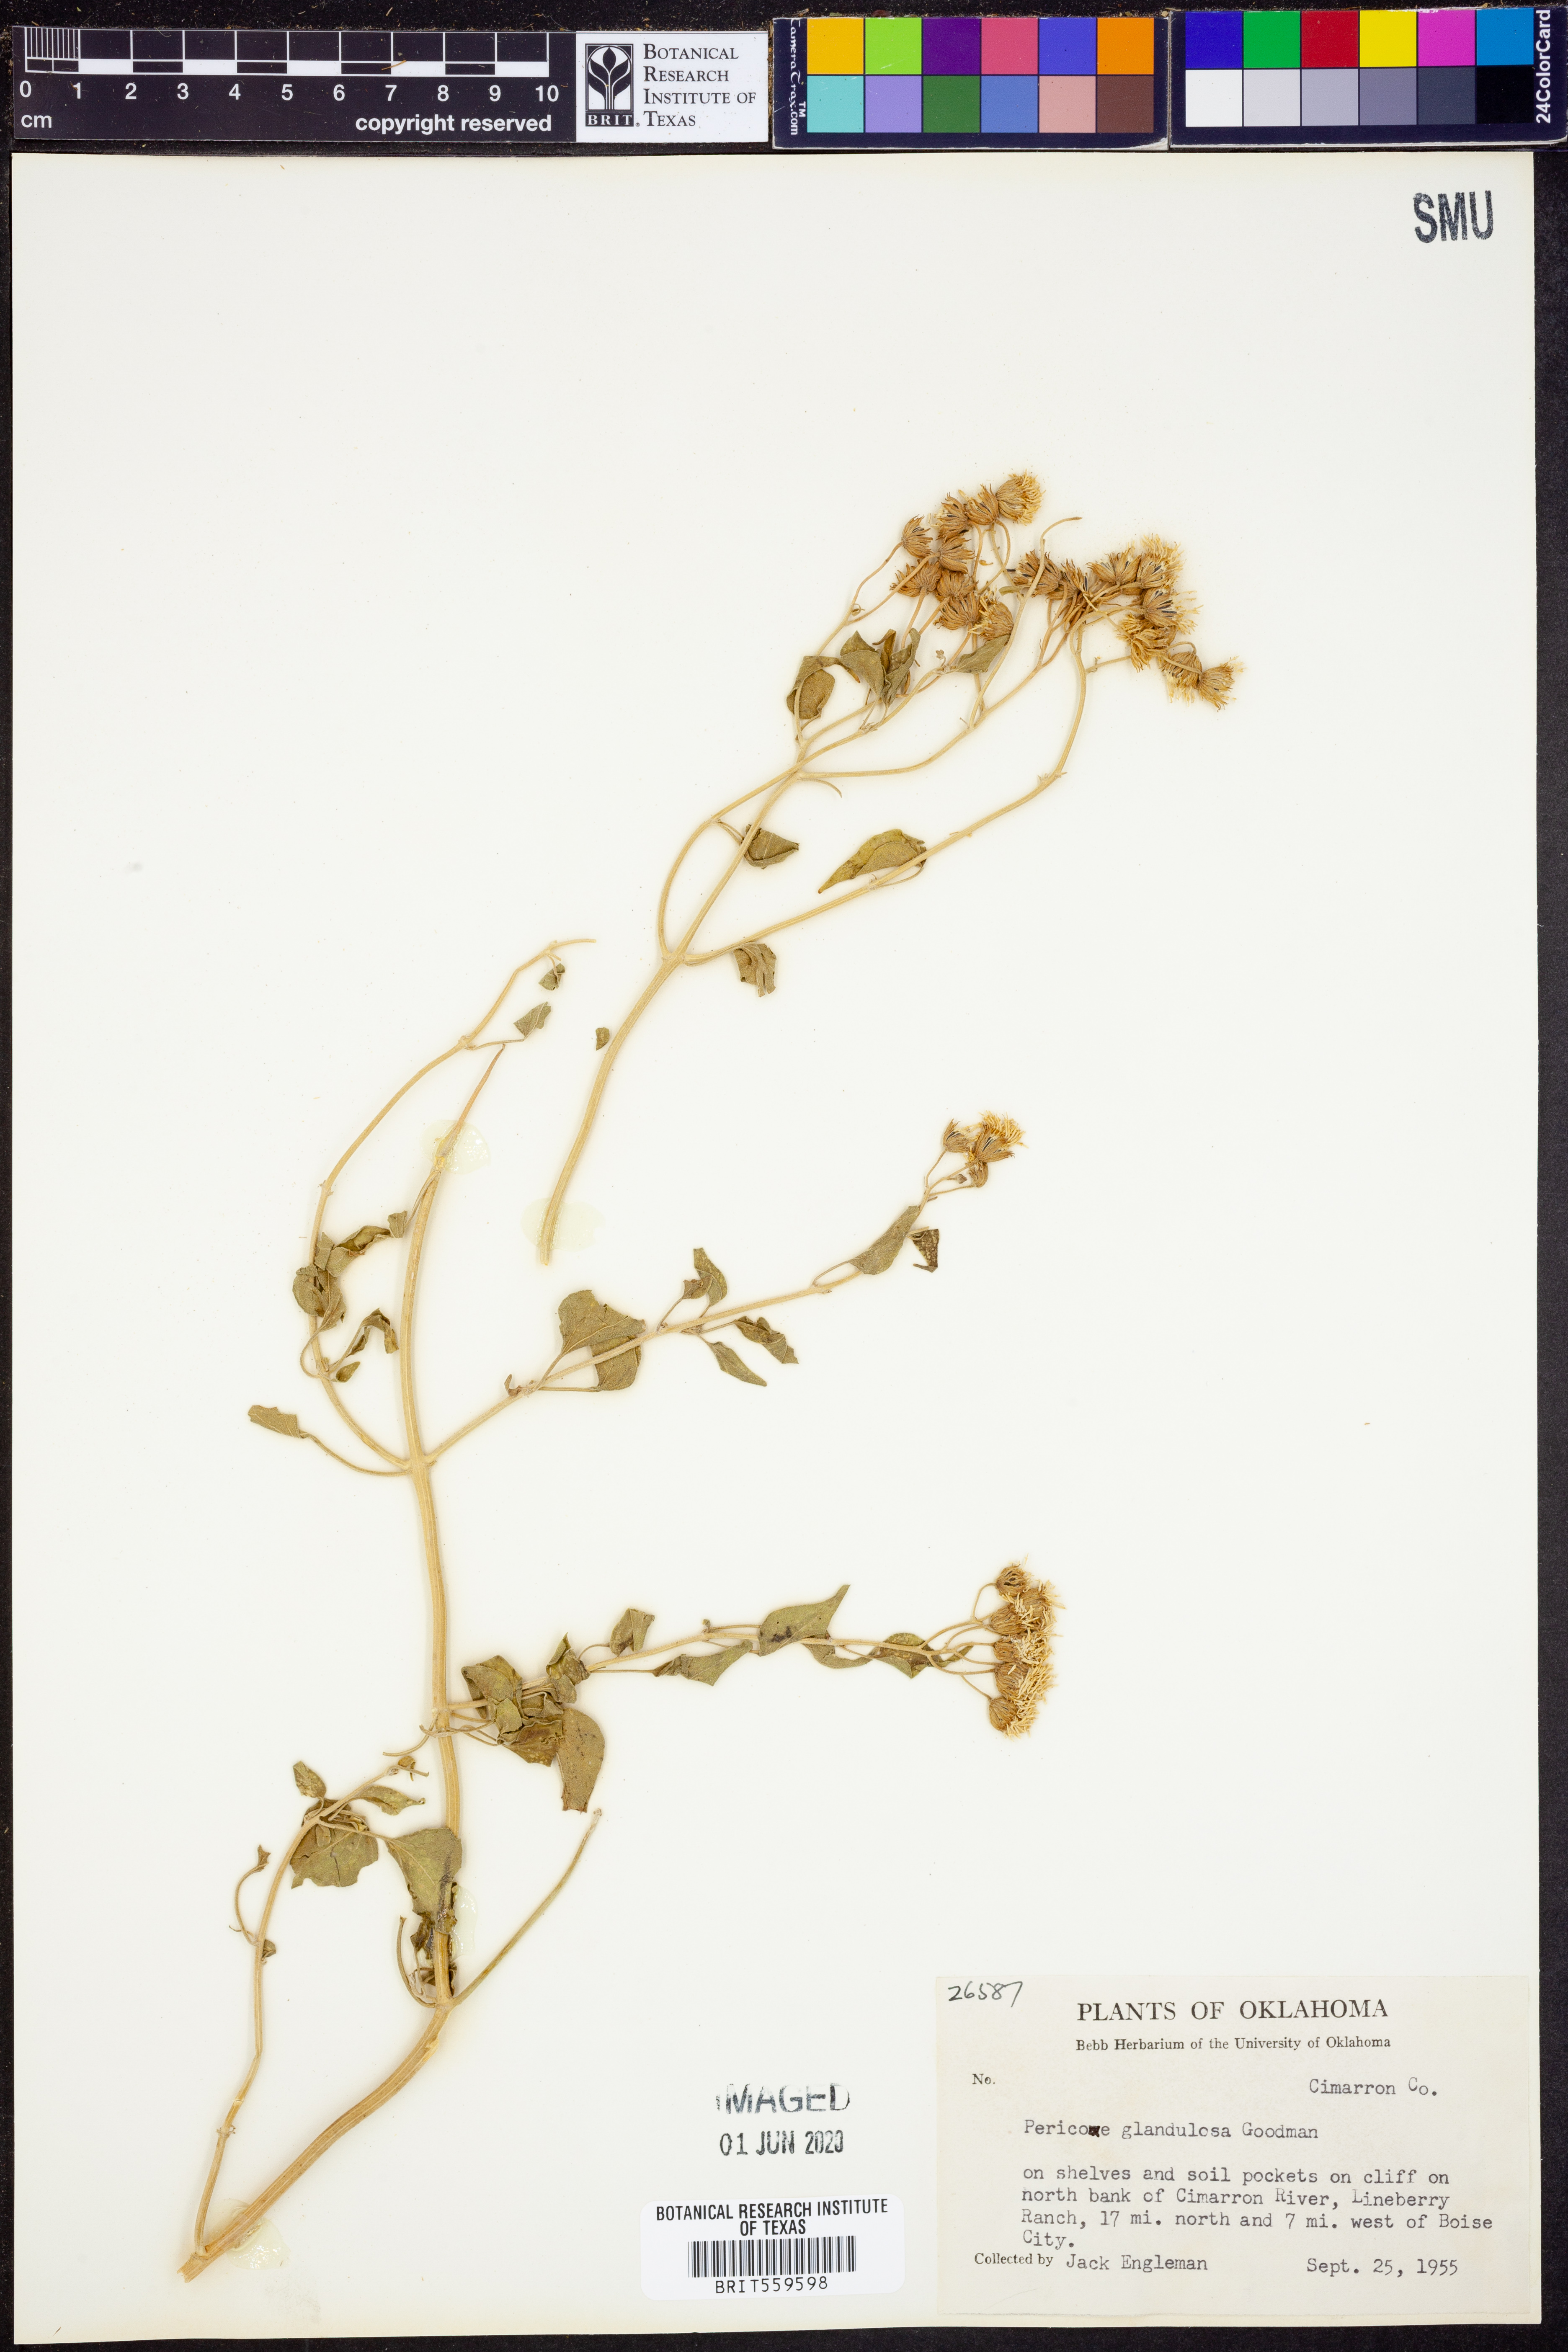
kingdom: Plantae
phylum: Tracheophyta
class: Magnoliopsida
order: Asterales
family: Asteraceae
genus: Pericome
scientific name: Pericome caudata
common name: Taperleaf
